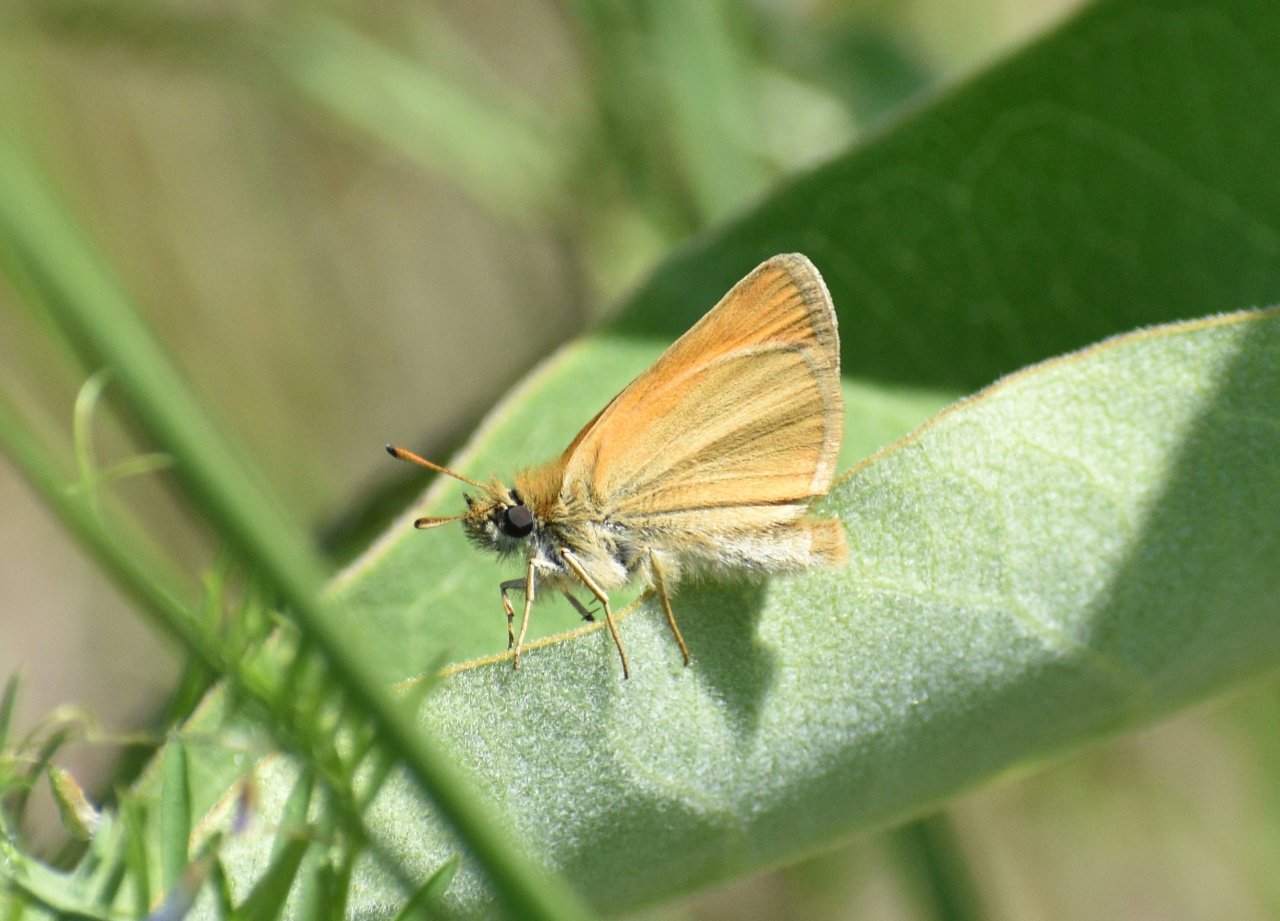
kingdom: Animalia
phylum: Arthropoda
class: Insecta
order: Lepidoptera
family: Hesperiidae
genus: Thymelicus
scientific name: Thymelicus lineola
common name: European Skipper
